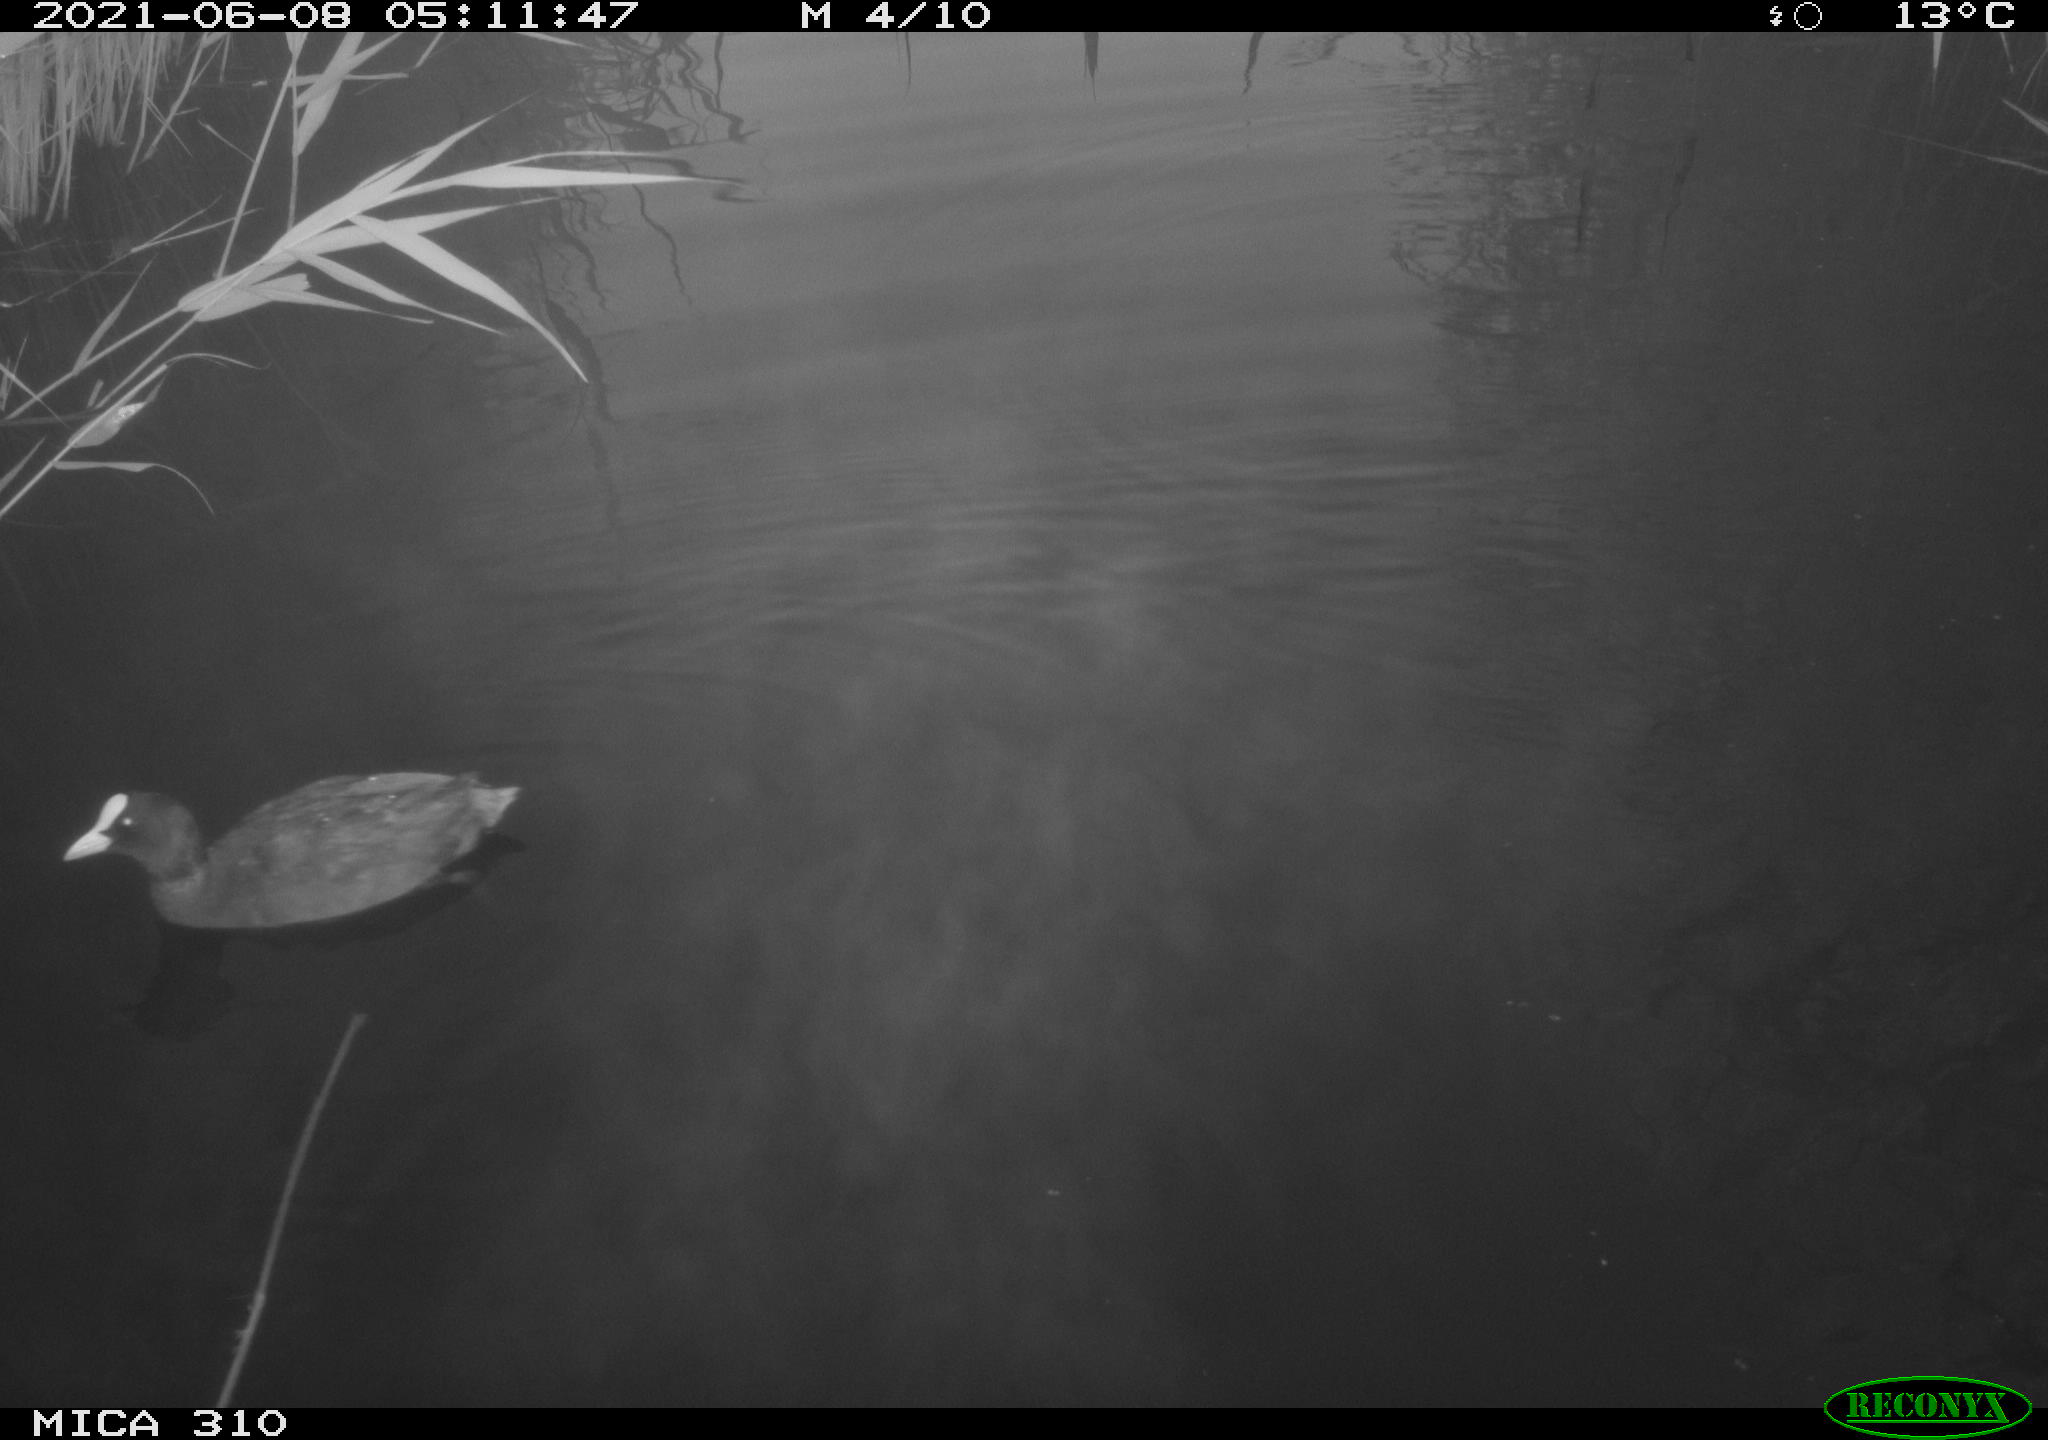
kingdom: Animalia
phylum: Chordata
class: Aves
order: Anseriformes
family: Anatidae
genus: Anas
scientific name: Anas
